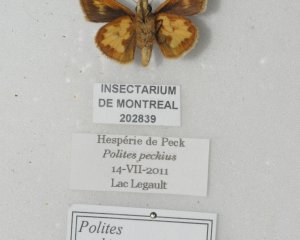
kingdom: Animalia
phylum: Arthropoda
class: Insecta
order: Lepidoptera
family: Hesperiidae
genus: Polites
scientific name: Polites coras
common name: Peck's Skipper
